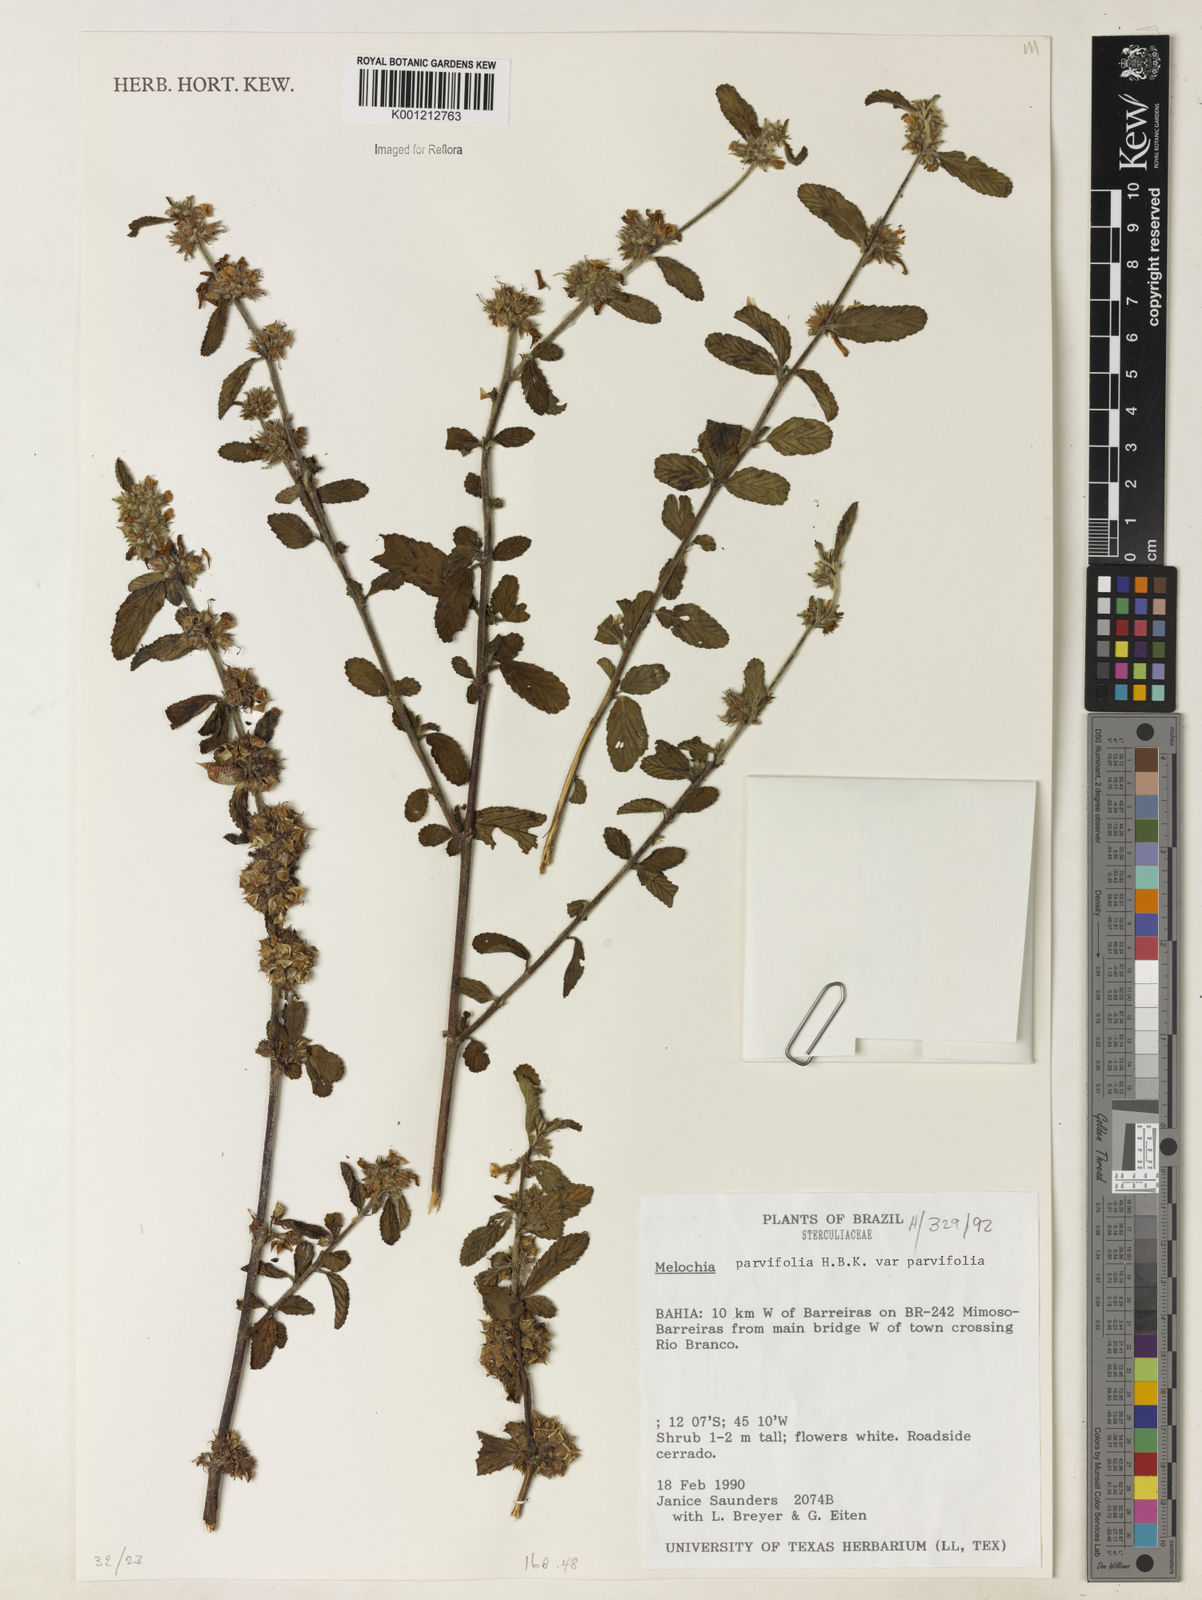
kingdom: Plantae
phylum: Tracheophyta
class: Magnoliopsida
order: Malvales
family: Malvaceae
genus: Melochia
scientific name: Melochia
